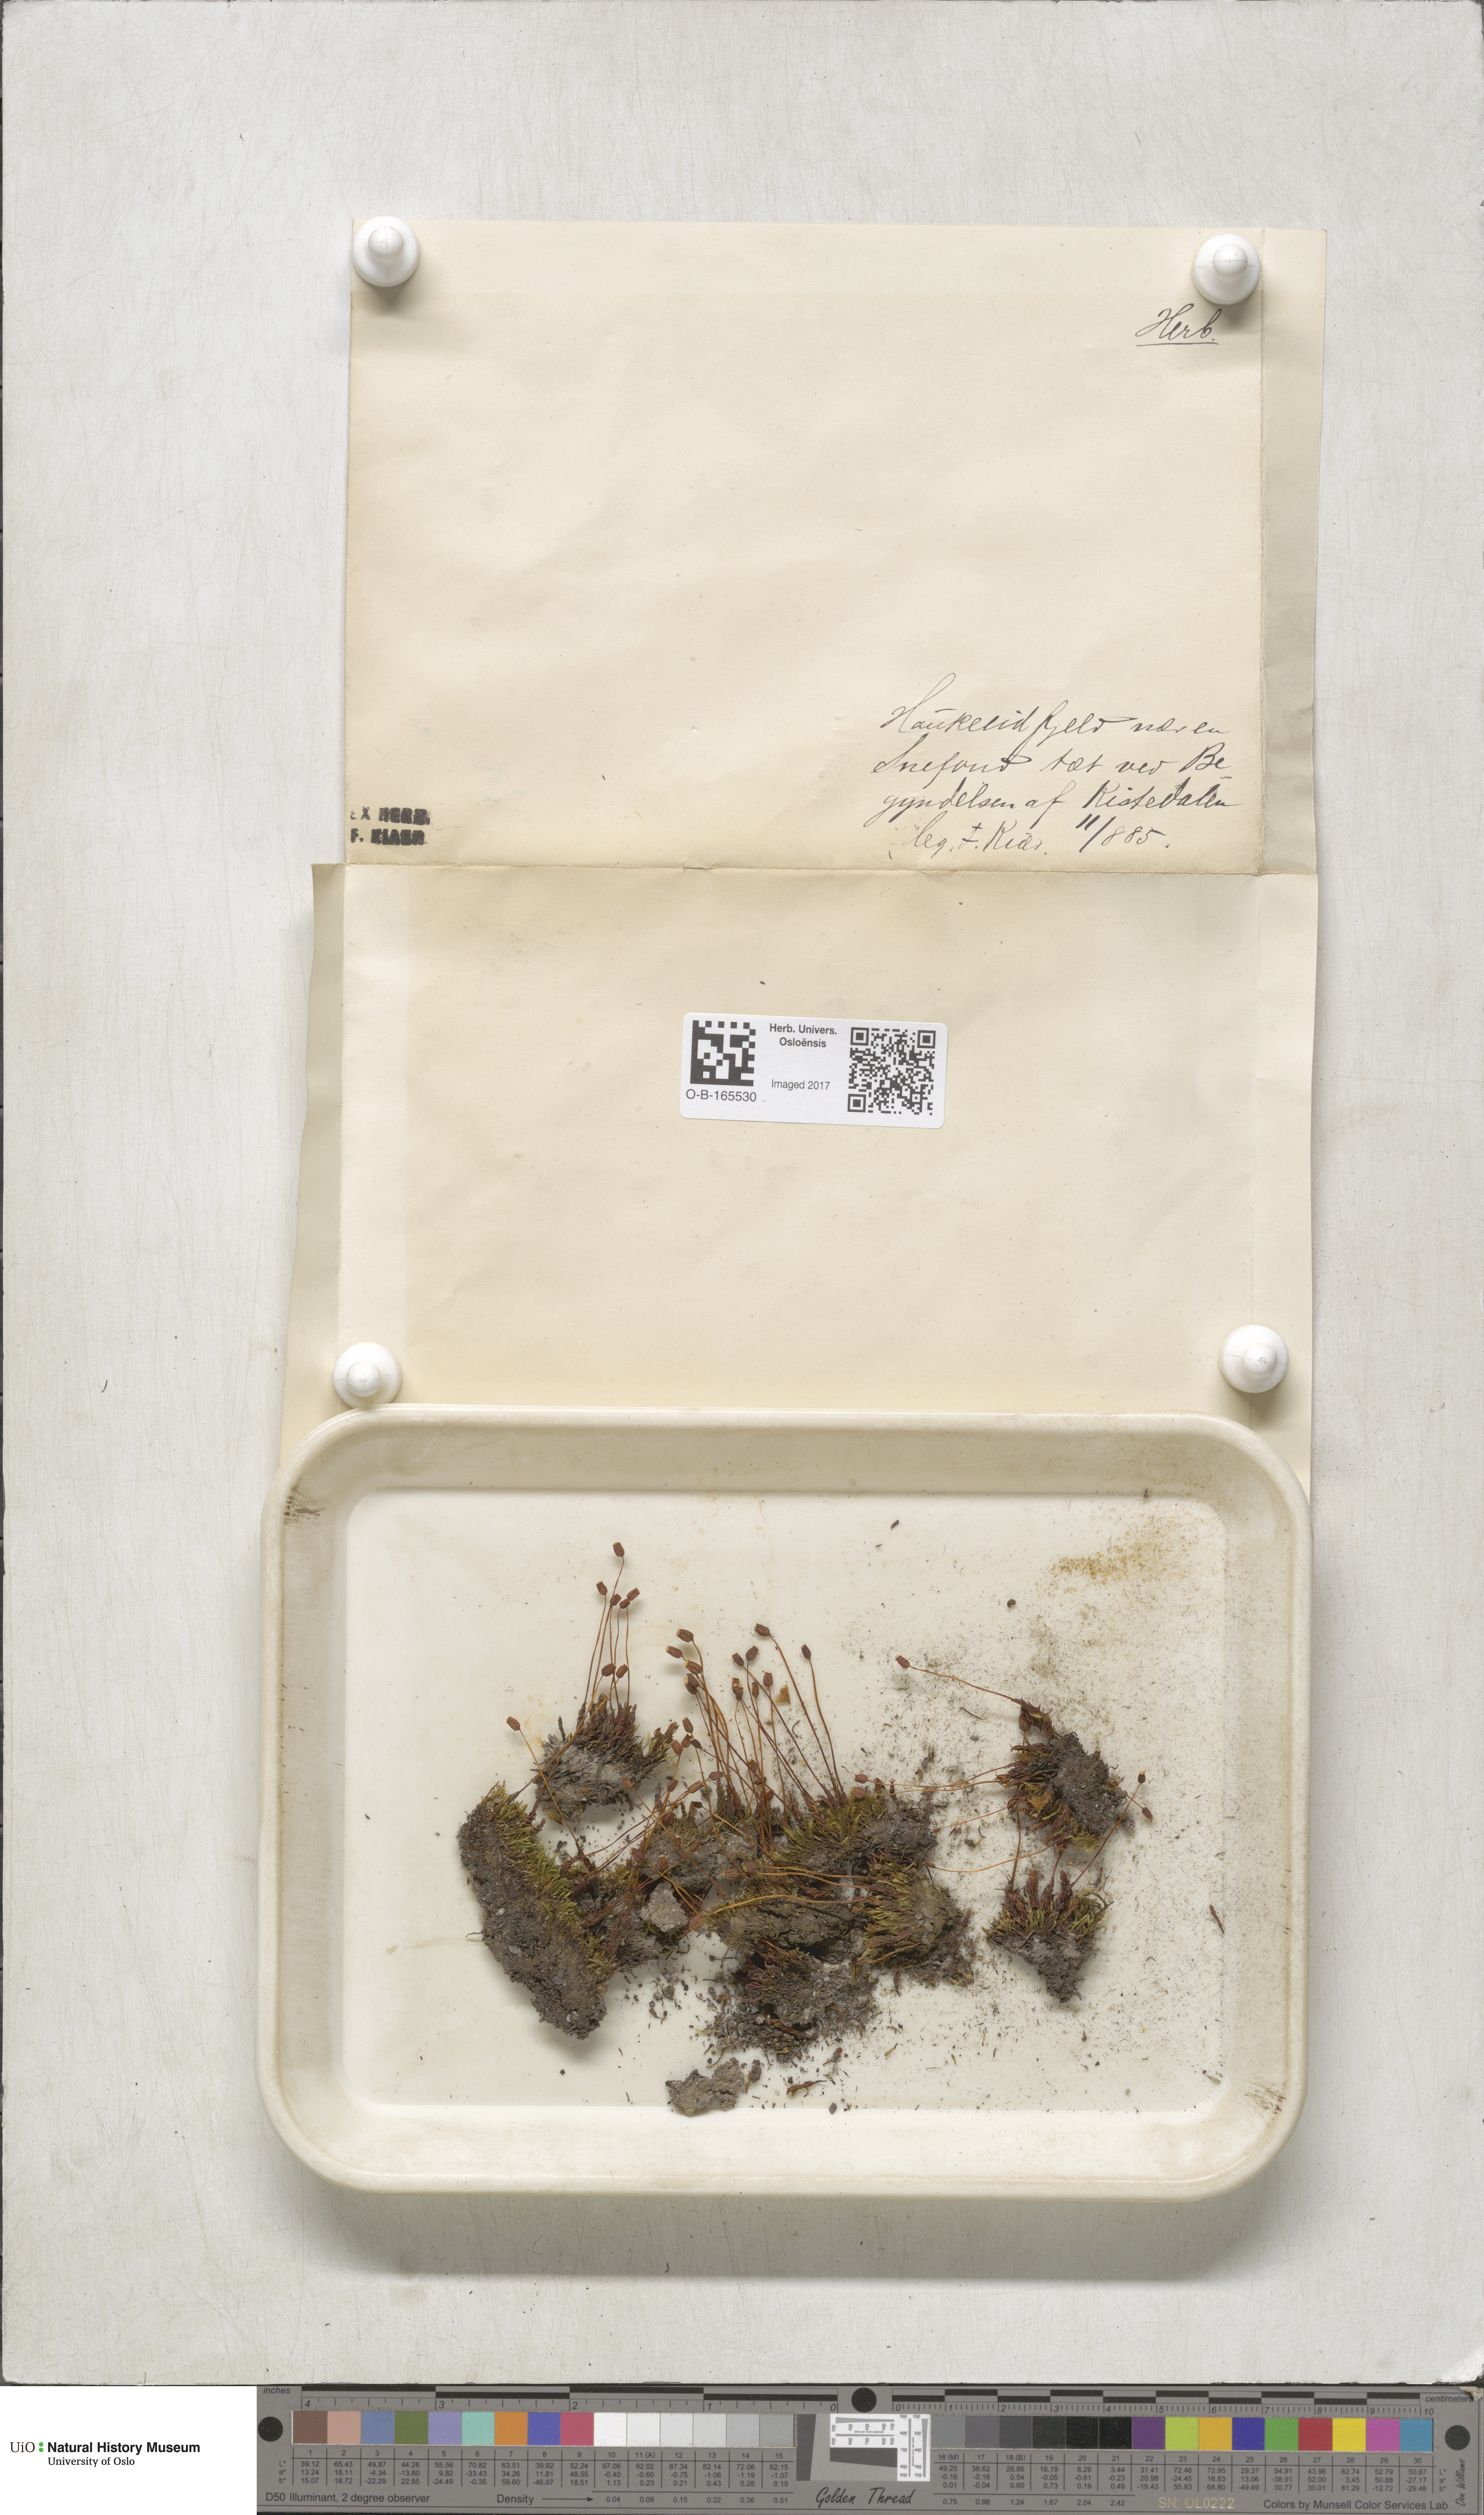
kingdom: Plantae
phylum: Bryophyta
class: Polytrichopsida
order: Polytrichales
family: Polytrichaceae
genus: Polytrichastrum
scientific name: Polytrichastrum sexangulare
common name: Northern haircap
